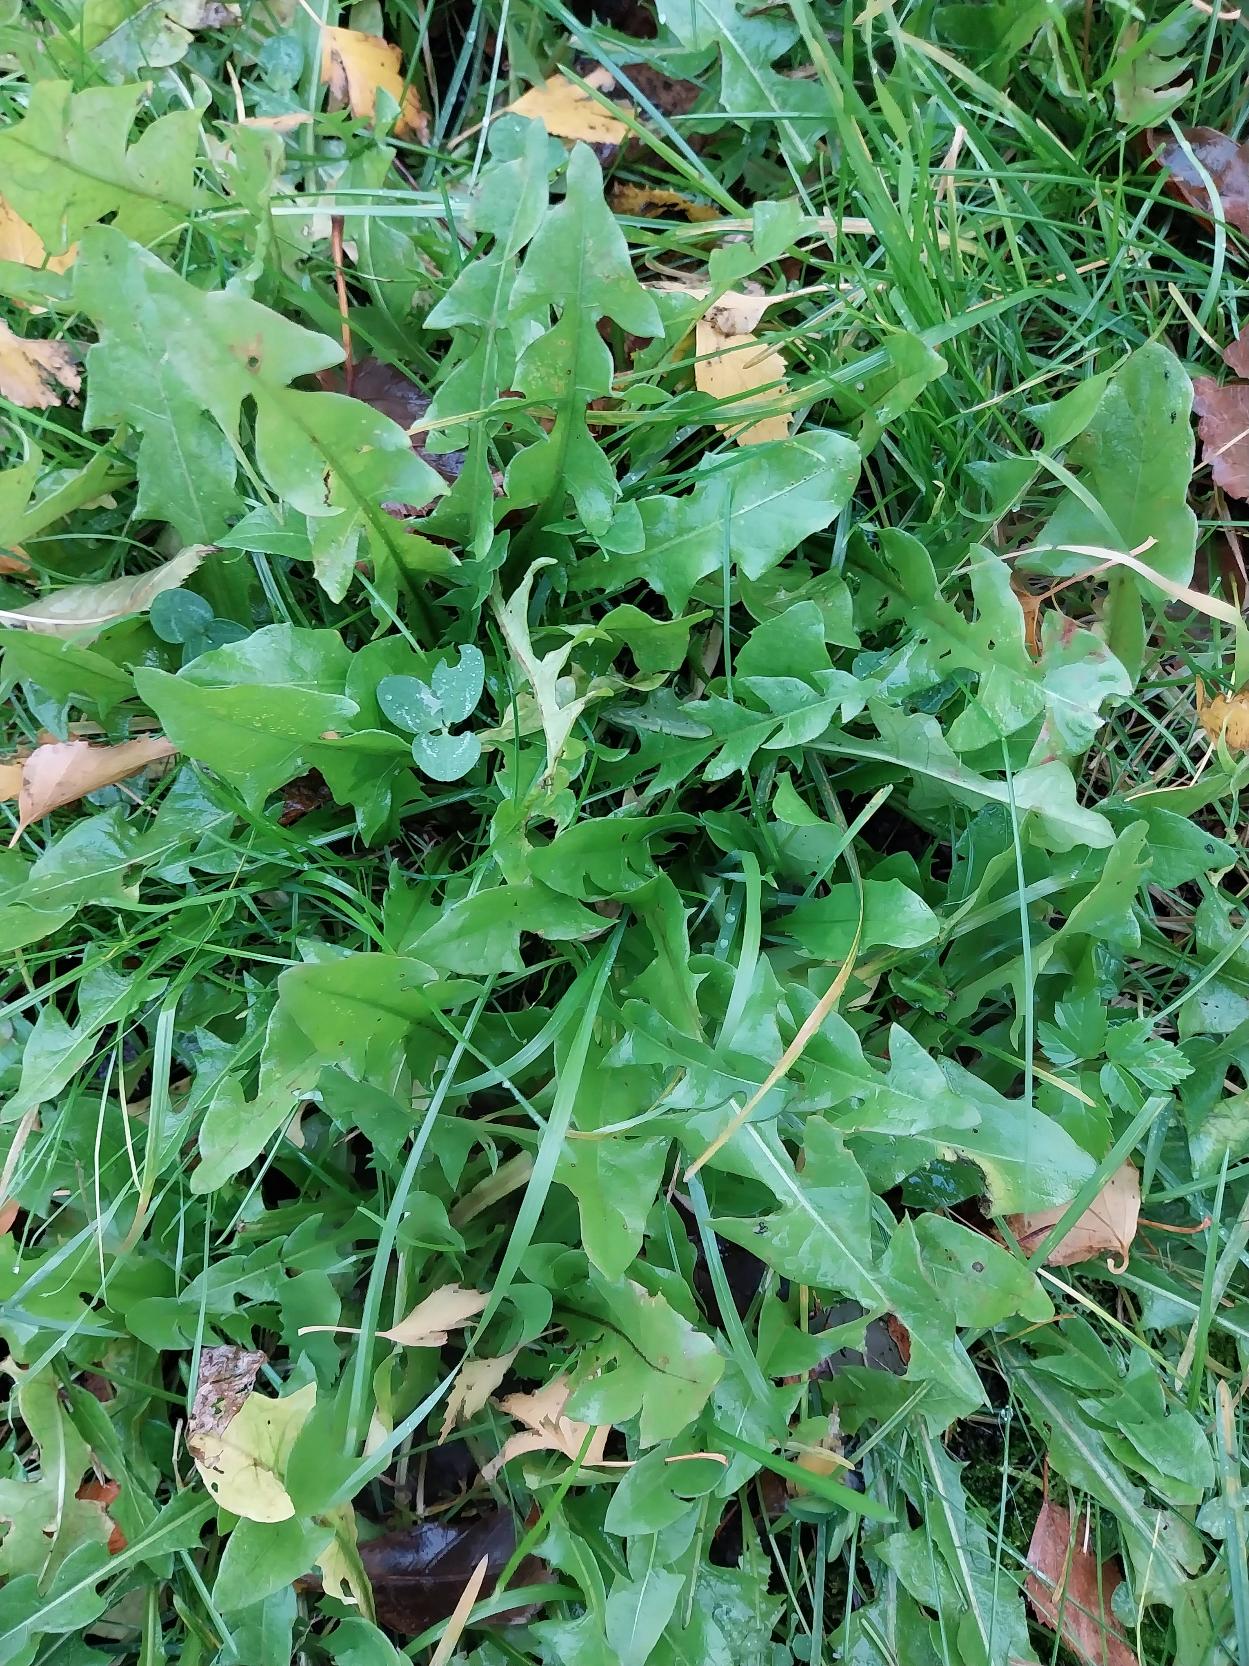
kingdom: Plantae
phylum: Tracheophyta
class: Magnoliopsida
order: Asterales
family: Asteraceae
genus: Taraxacum
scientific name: Taraxacum
